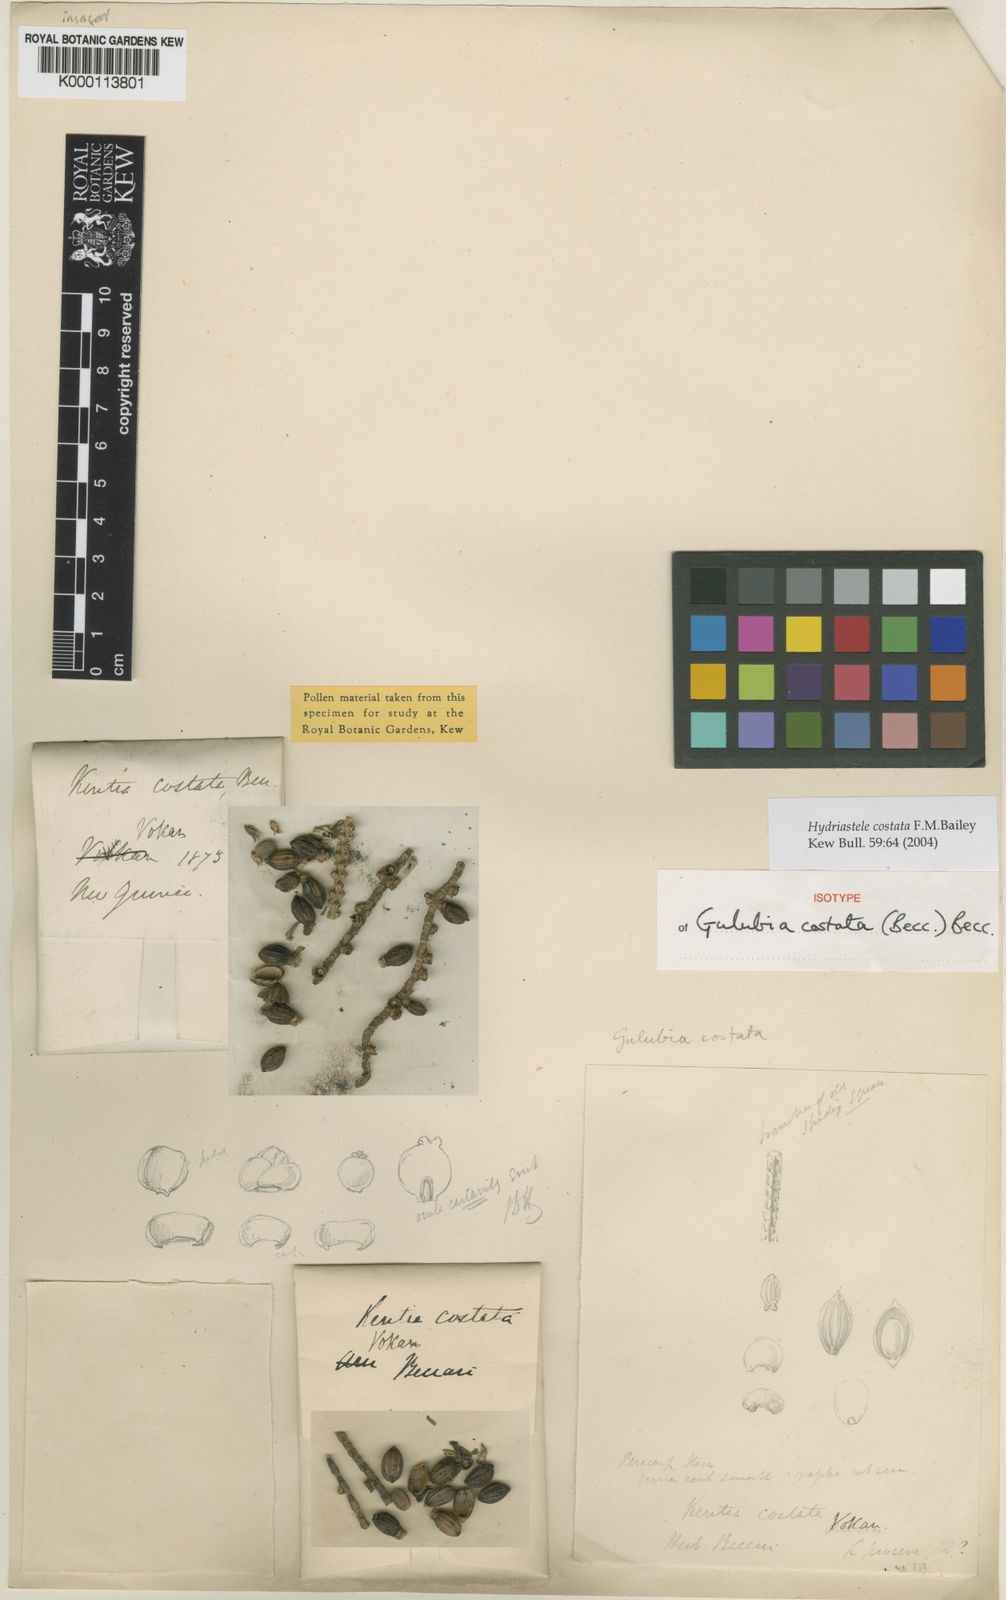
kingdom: Plantae
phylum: Tracheophyta
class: Liliopsida
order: Arecales
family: Arecaceae
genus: Hydriastele
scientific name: Hydriastele costata
